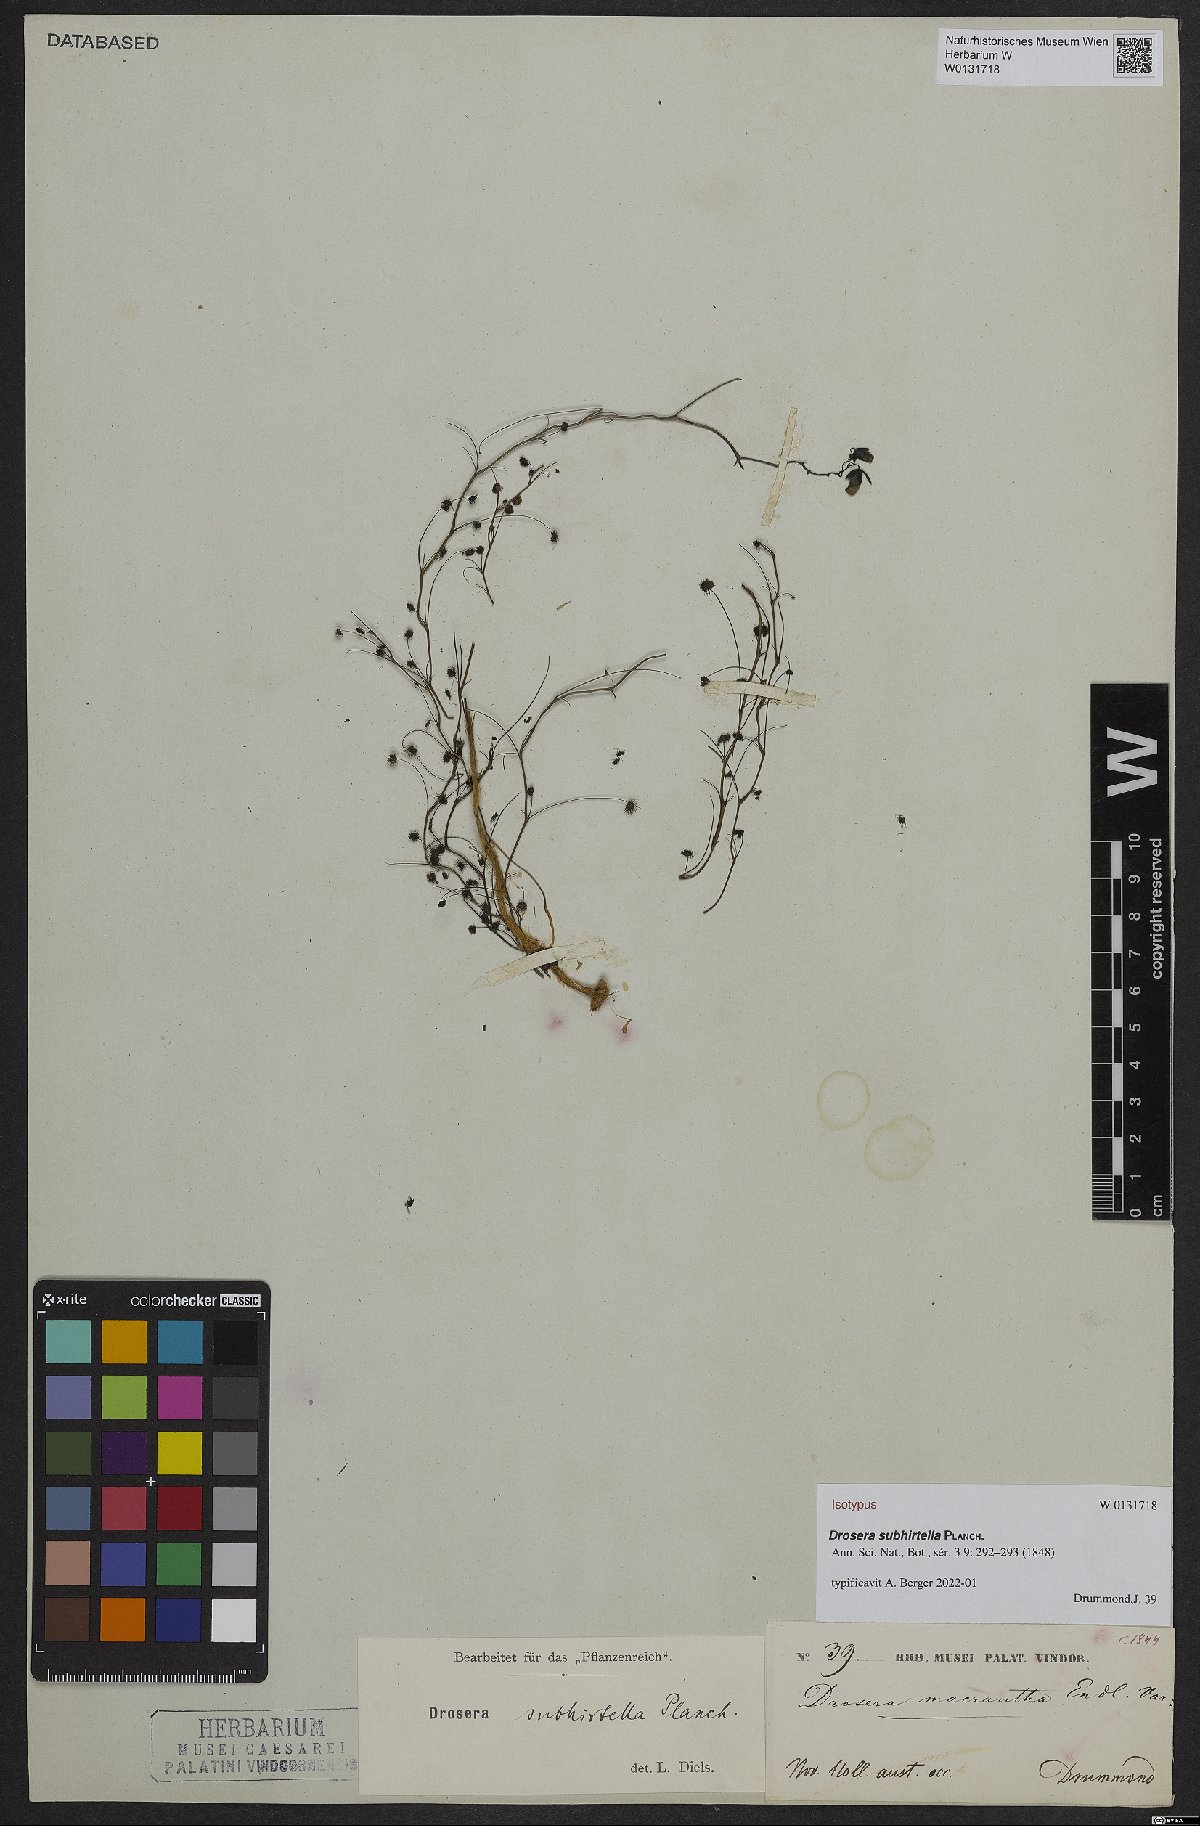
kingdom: Plantae
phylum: Tracheophyta
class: Magnoliopsida
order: Caryophyllales
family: Droseraceae
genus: Drosera
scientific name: Drosera subhirtella
